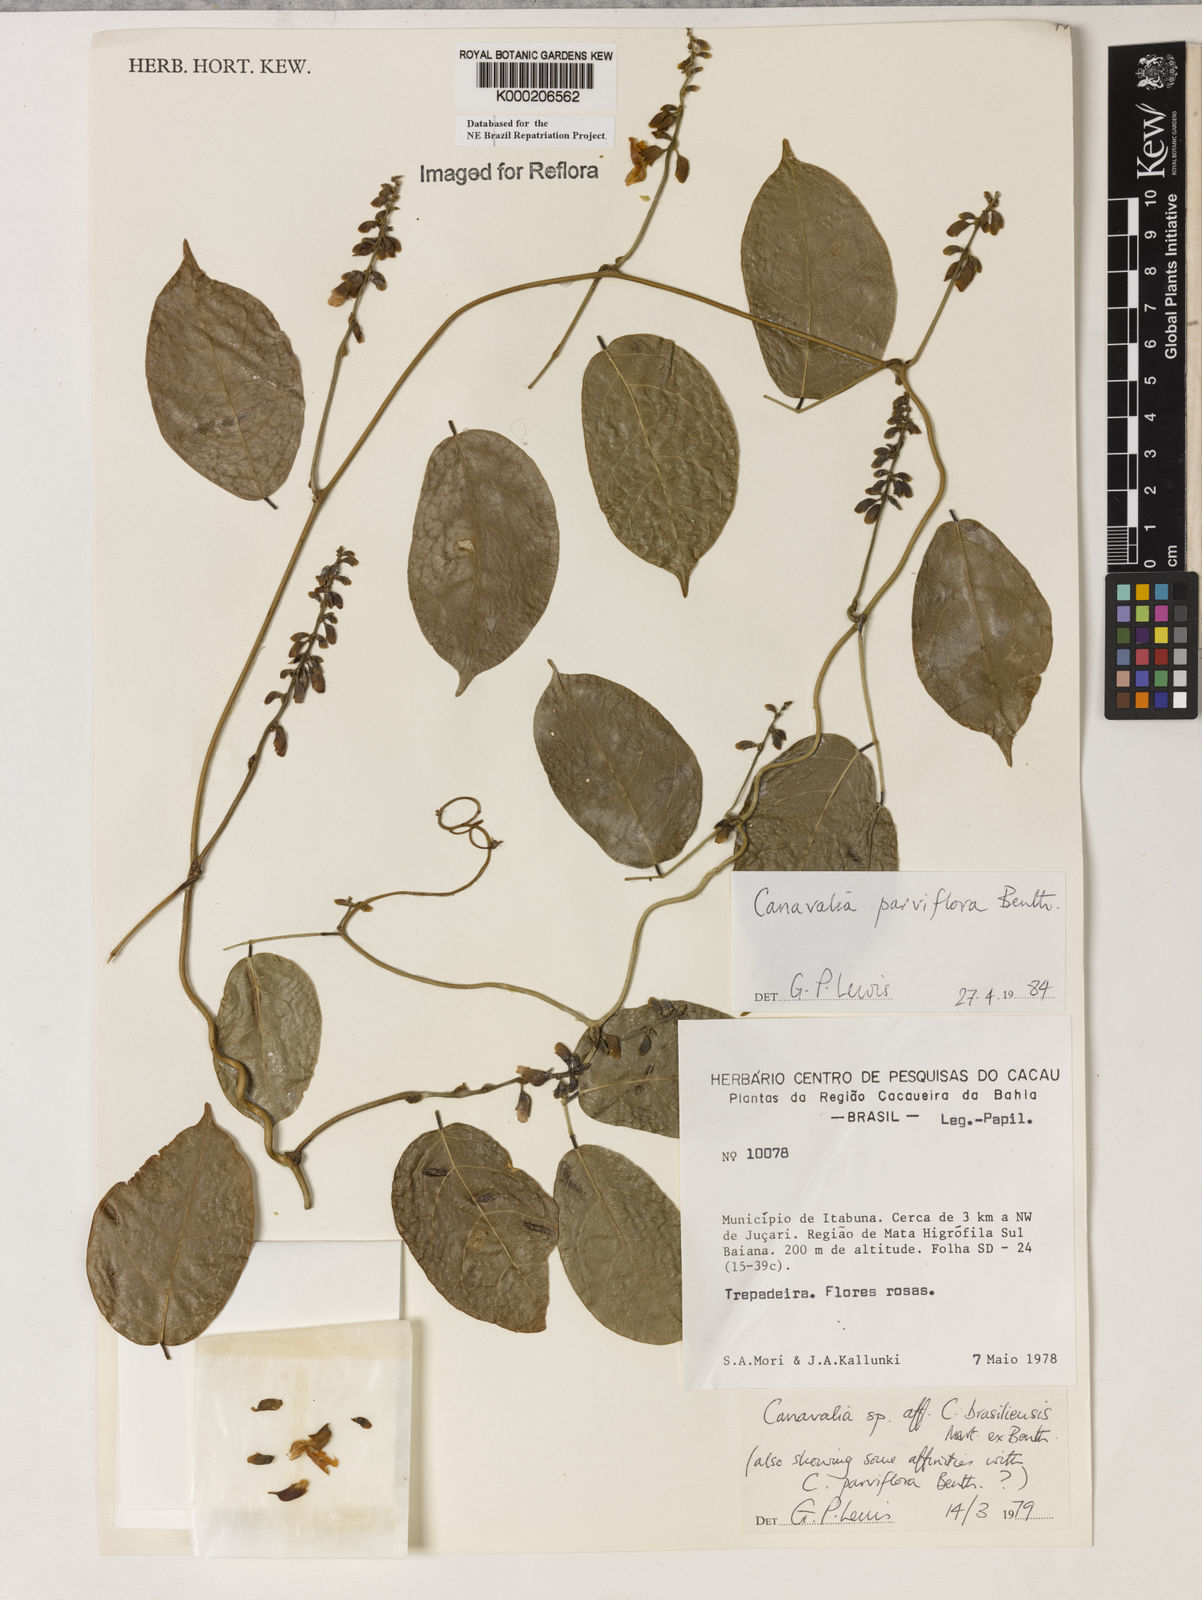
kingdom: Plantae
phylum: Tracheophyta
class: Magnoliopsida
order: Fabales
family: Fabaceae
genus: Canavalia
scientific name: Canavalia parviflora
